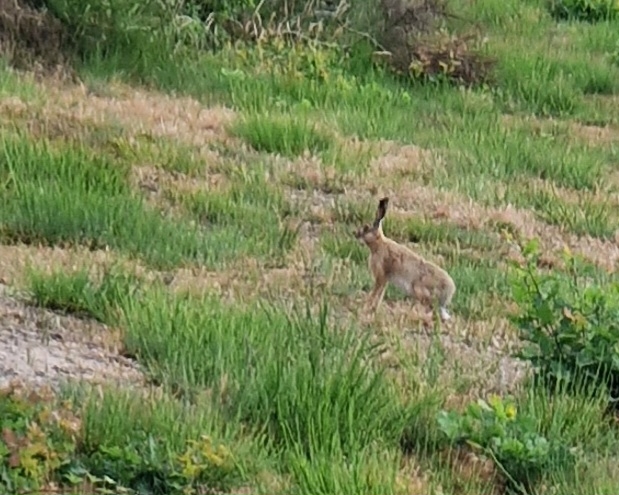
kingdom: Animalia
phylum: Chordata
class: Mammalia
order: Lagomorpha
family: Leporidae
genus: Lepus
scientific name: Lepus europaeus
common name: Hare
